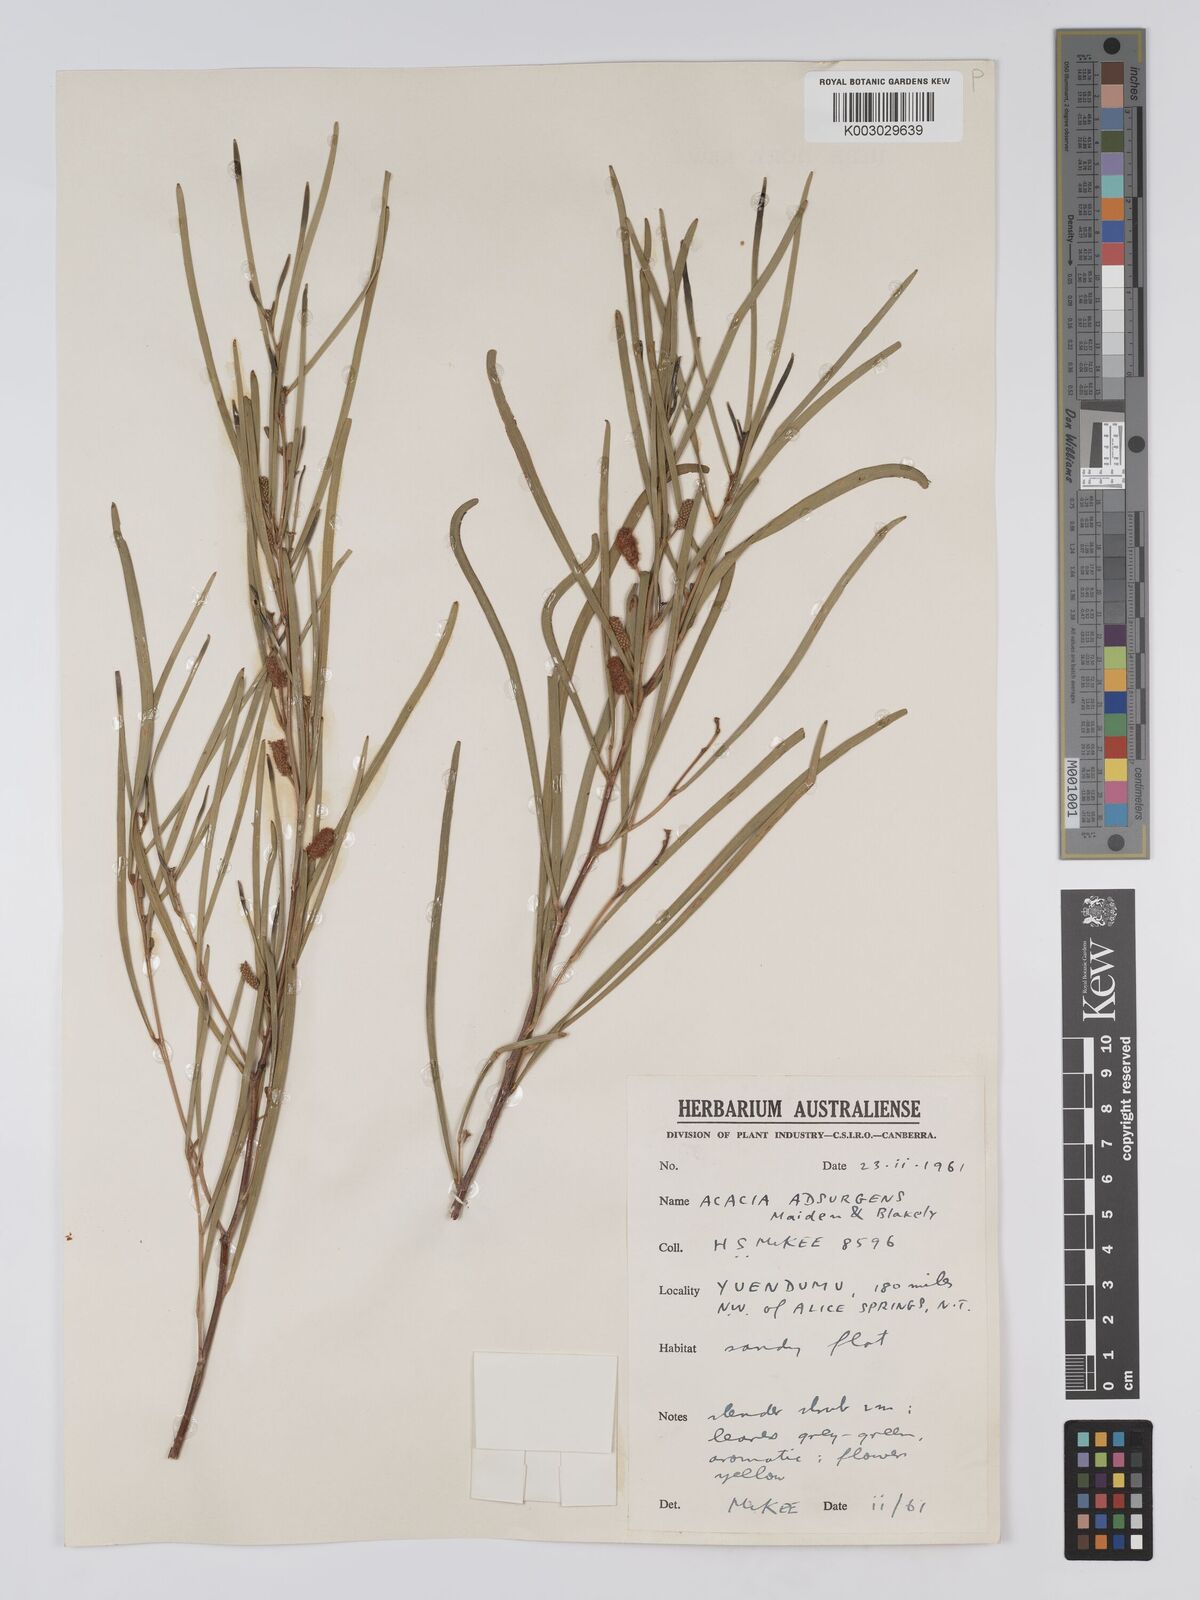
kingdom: Plantae
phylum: Tracheophyta
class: Magnoliopsida
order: Fabales
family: Fabaceae
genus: Acacia
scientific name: Acacia adsurgens
